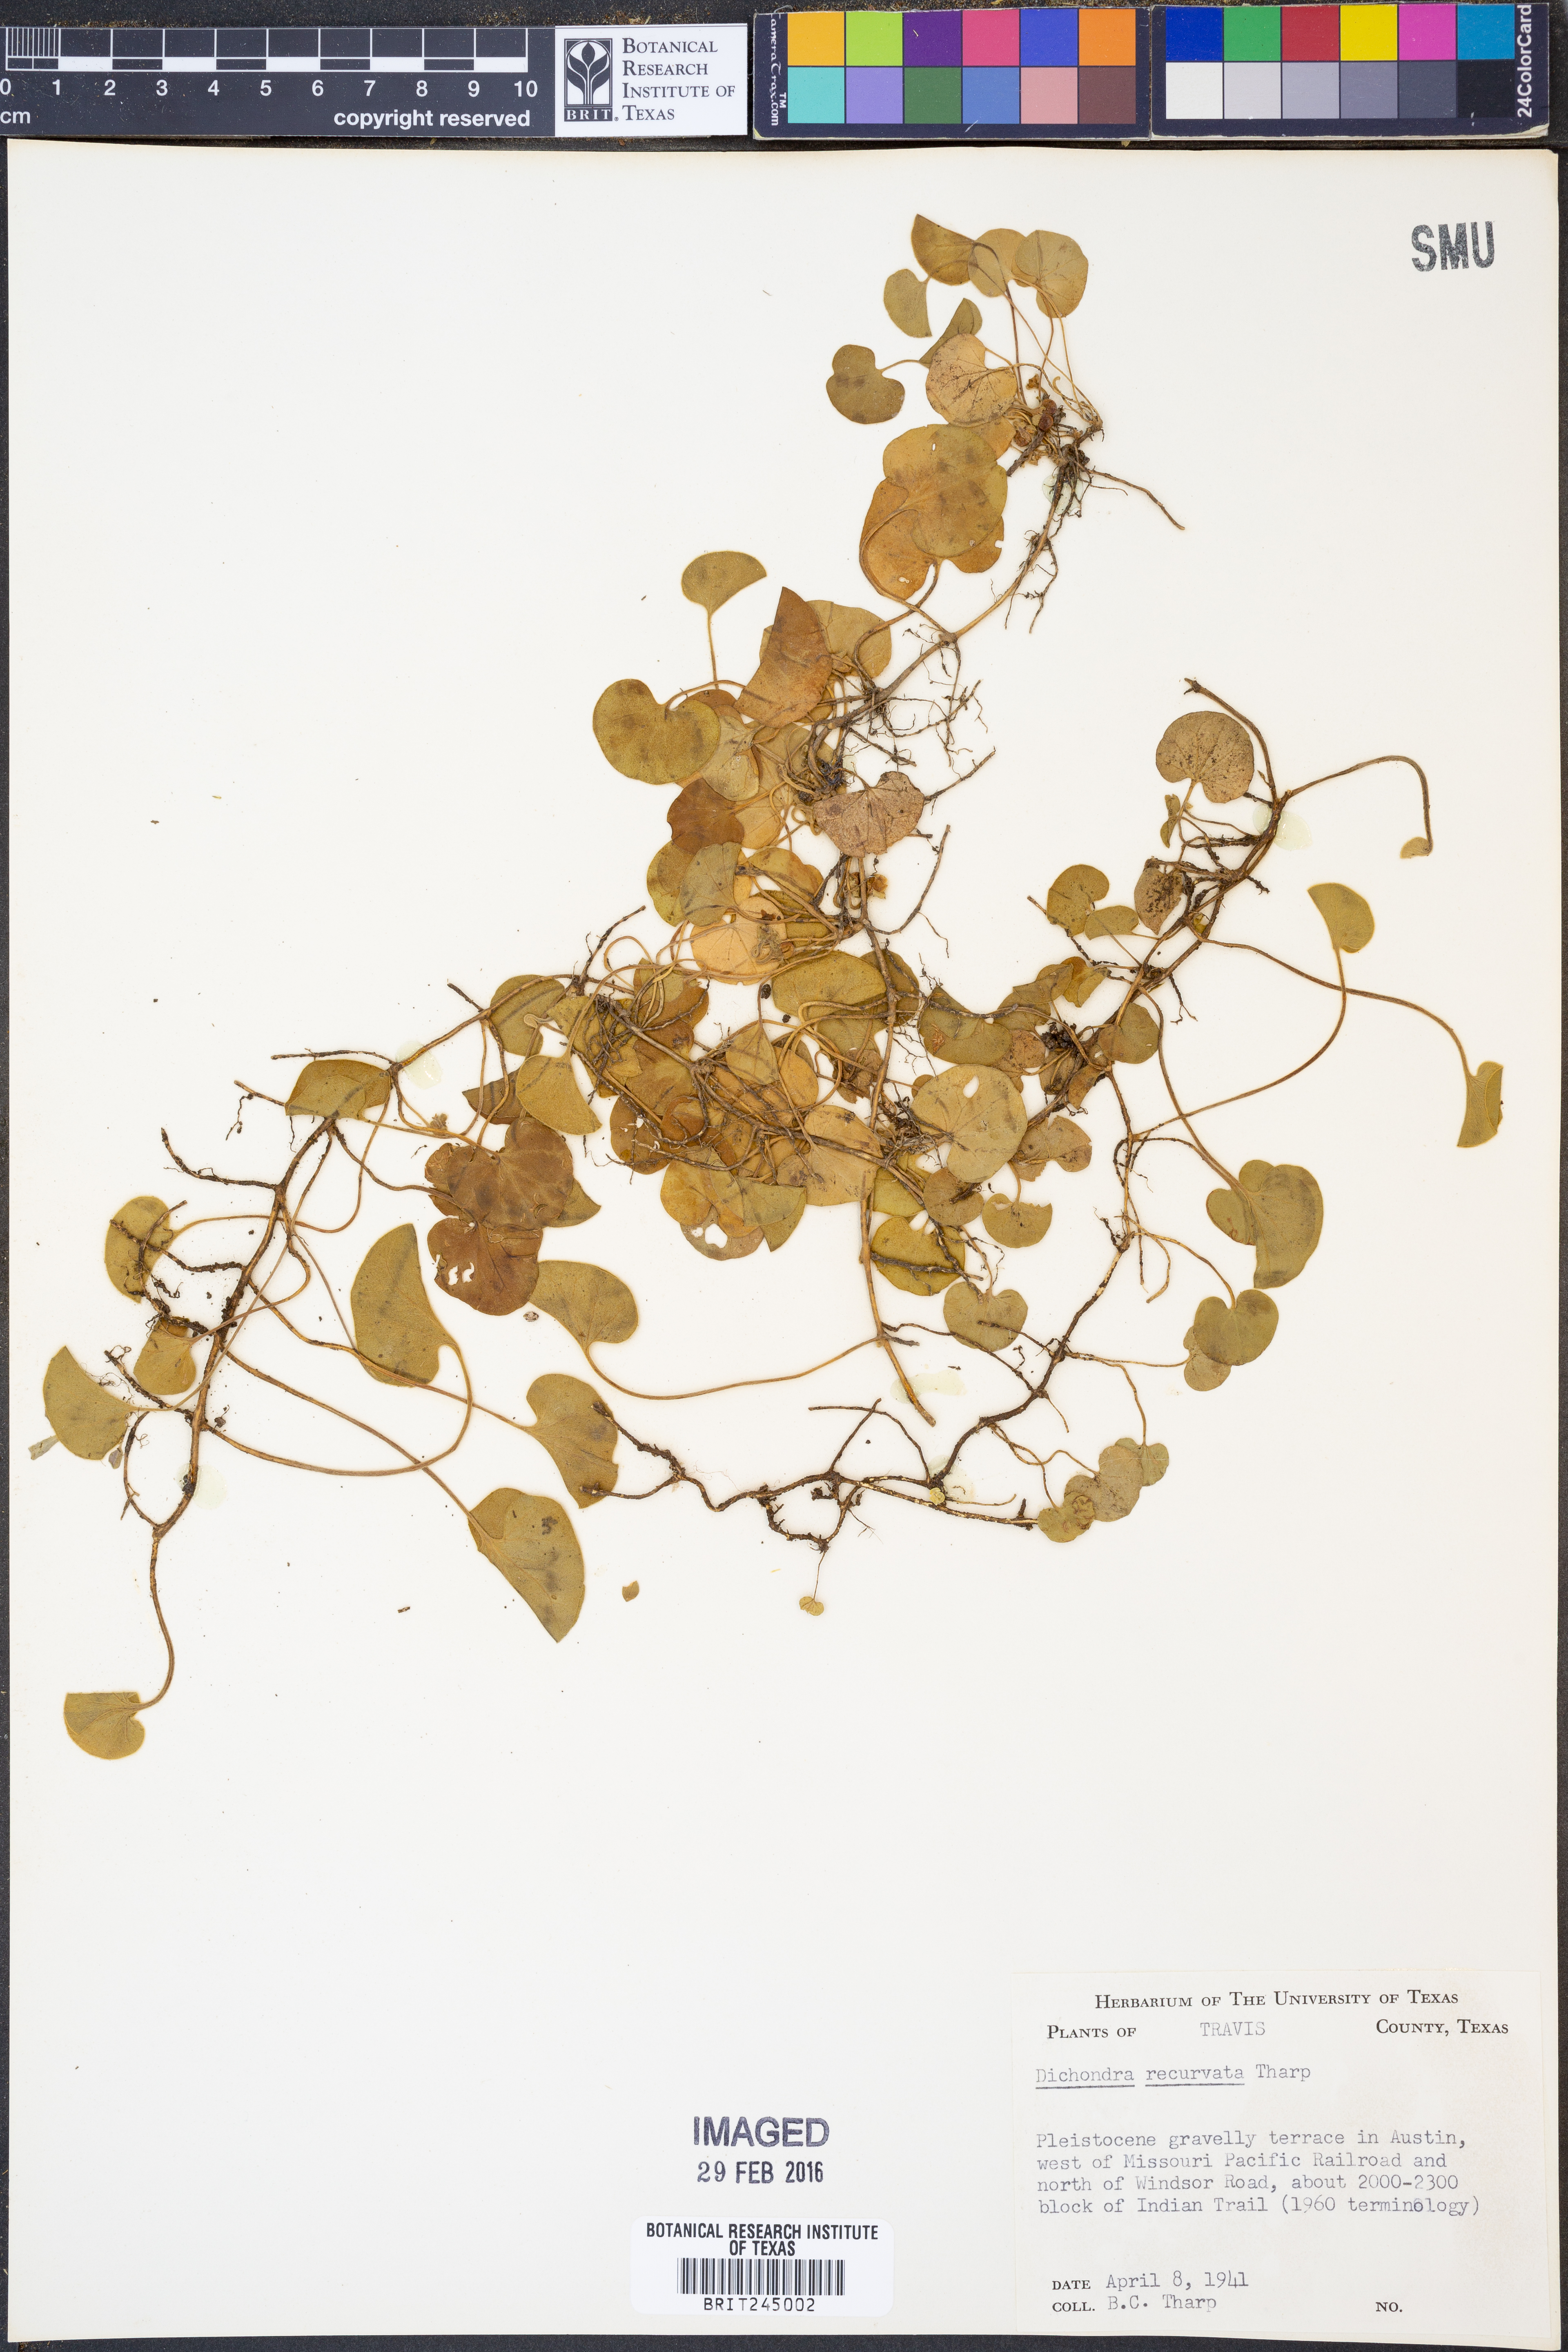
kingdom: Plantae
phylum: Tracheophyta
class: Magnoliopsida
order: Solanales
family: Convolvulaceae
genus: Dichondra
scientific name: Dichondra recurvata
